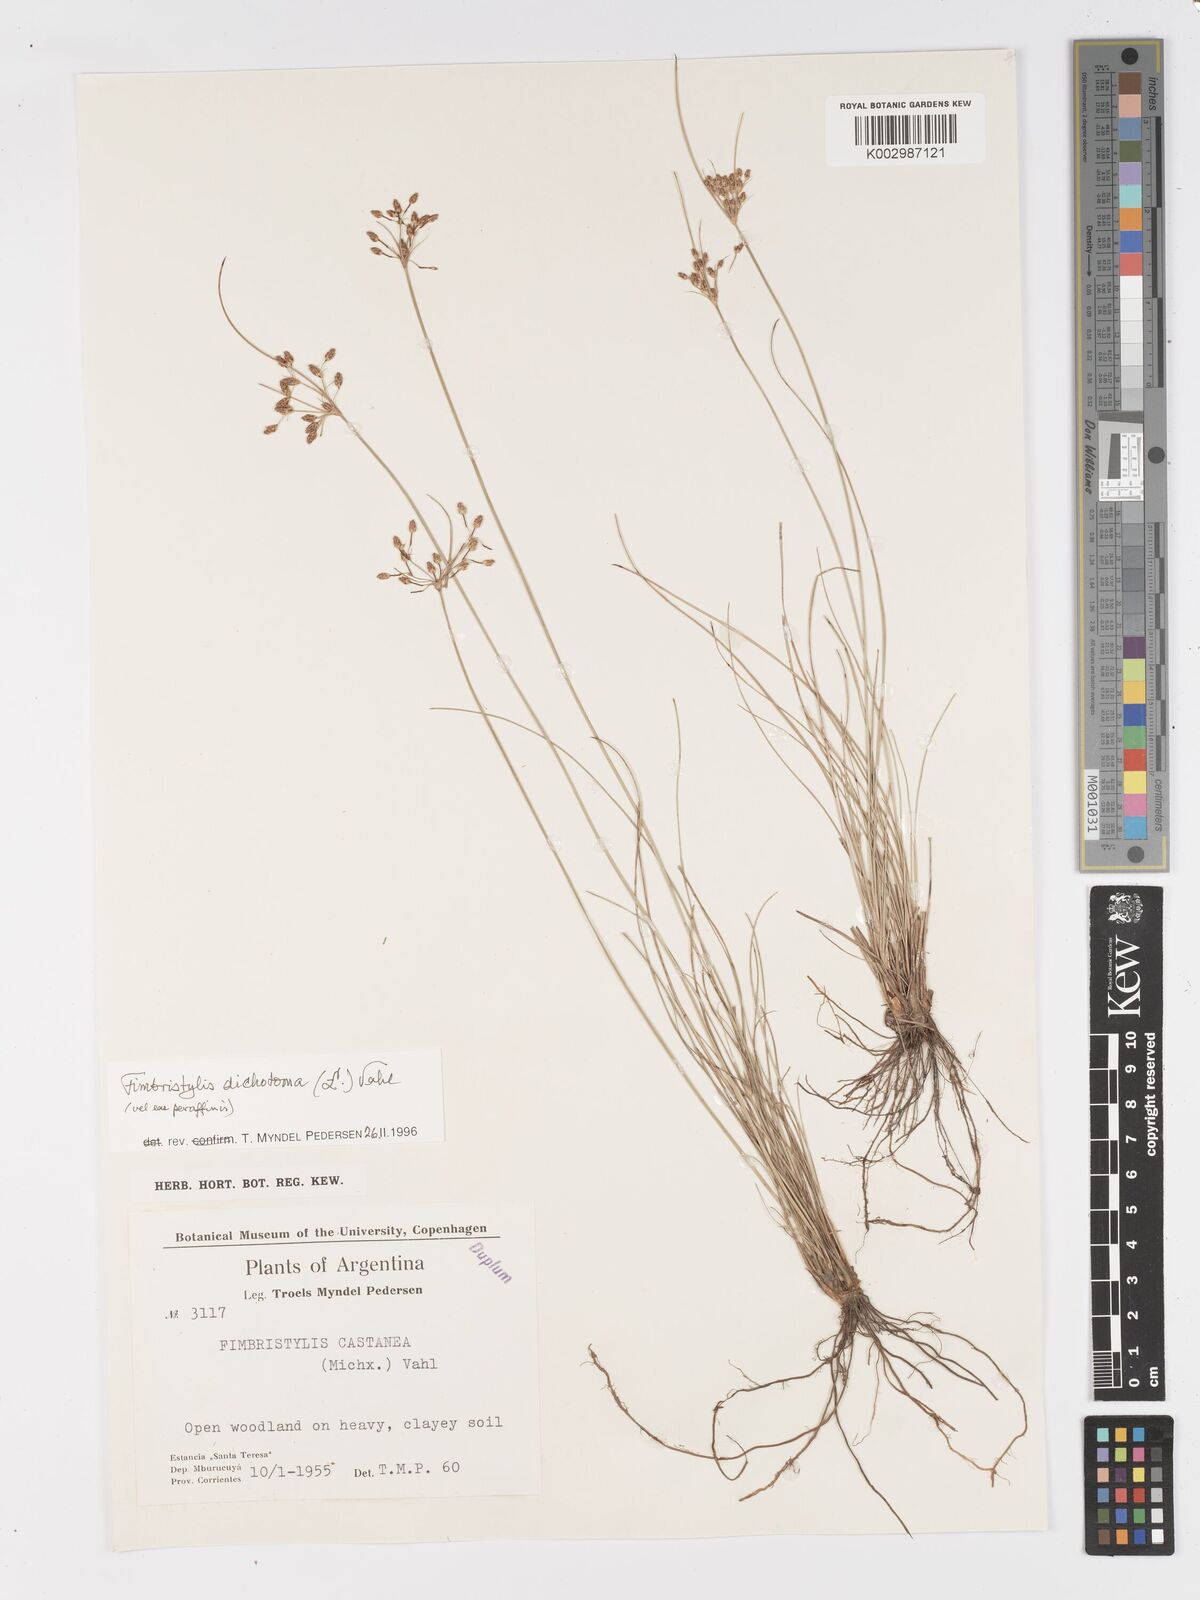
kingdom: Plantae
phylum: Tracheophyta
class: Liliopsida
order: Poales
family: Cyperaceae
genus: Fimbristylis
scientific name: Fimbristylis dichotoma
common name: Forked fimbry
